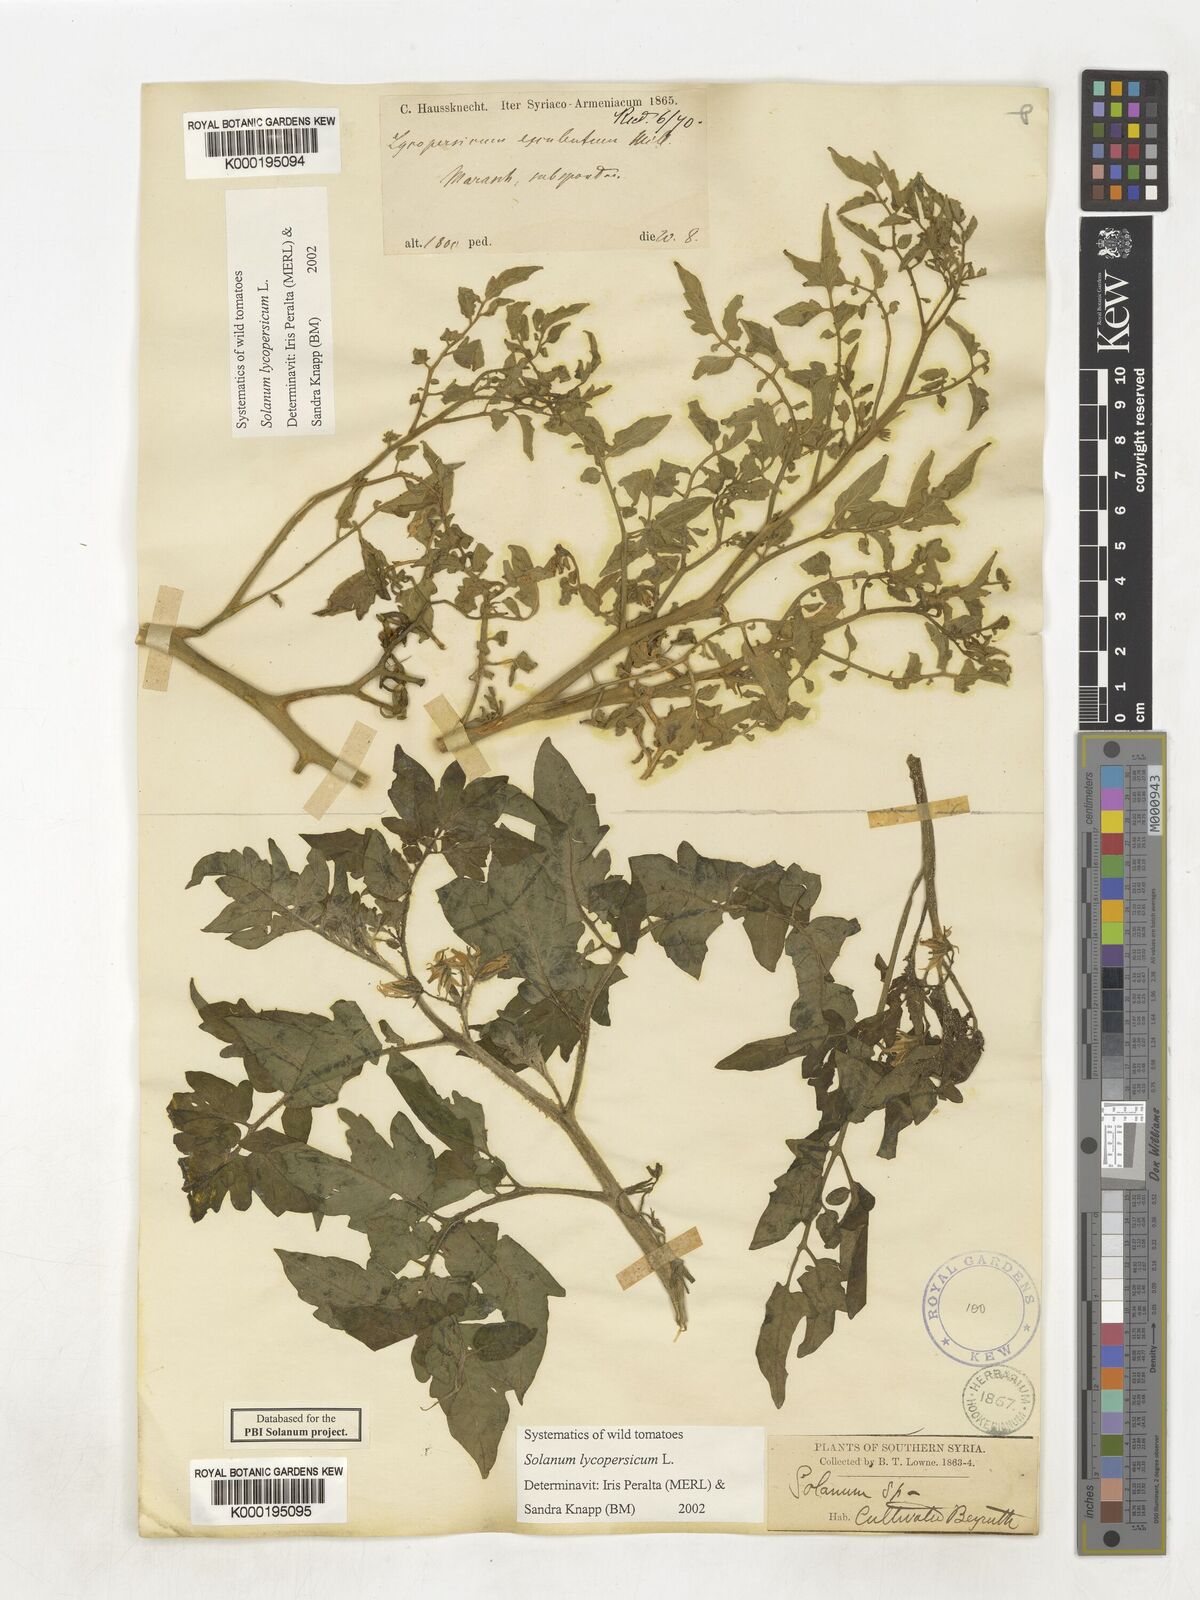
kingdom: Plantae
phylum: Tracheophyta
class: Magnoliopsida
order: Solanales
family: Solanaceae
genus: Solanum
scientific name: Solanum lycopersicum
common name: Garden tomato
